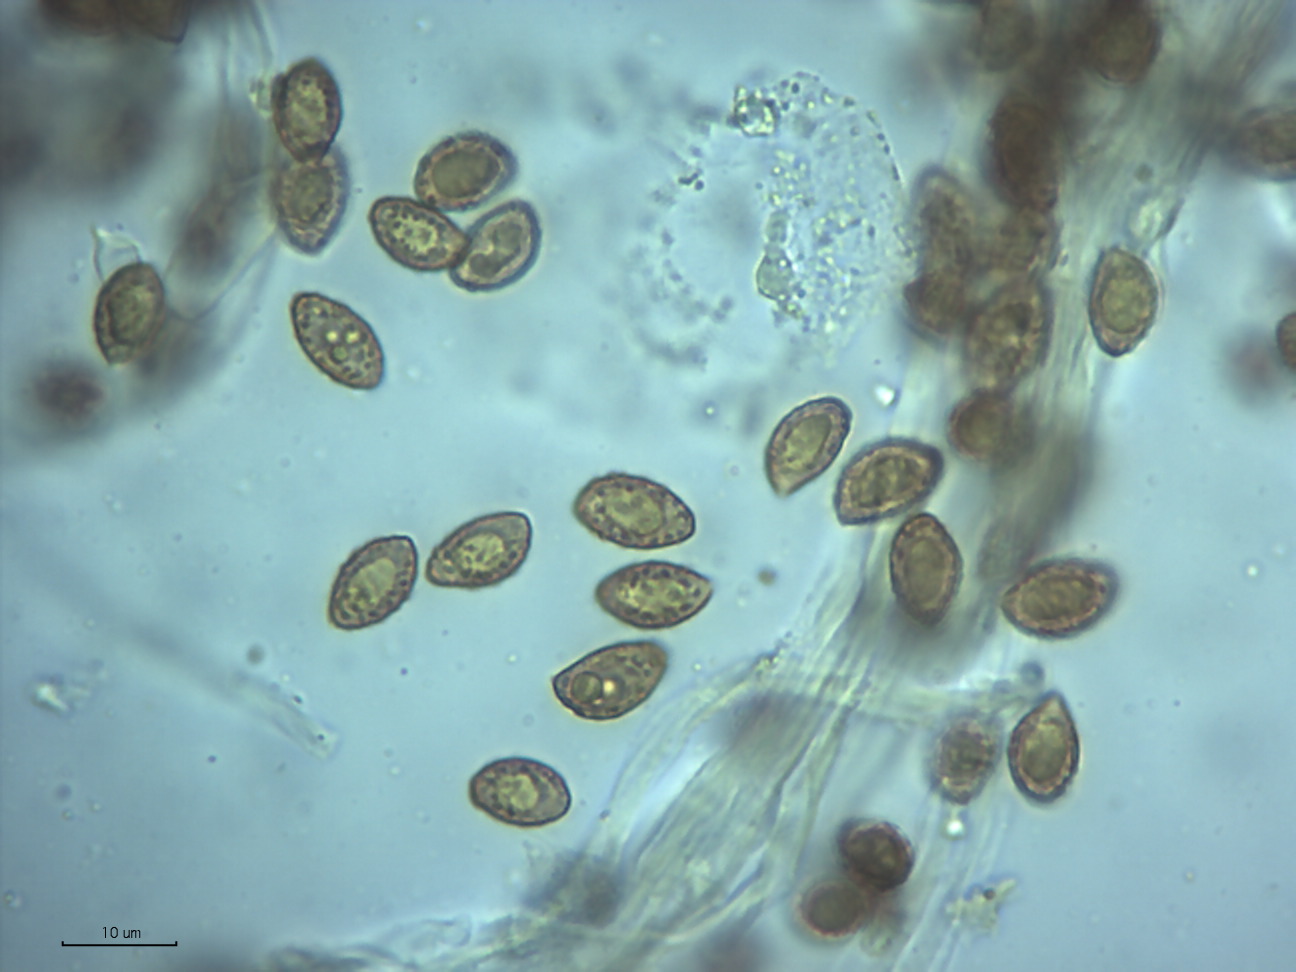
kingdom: Fungi
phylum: Basidiomycota
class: Agaricomycetes
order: Agaricales
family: Cortinariaceae
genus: Phlegmacium
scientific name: Phlegmacium rhizophorum
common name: finkornet slørhat
